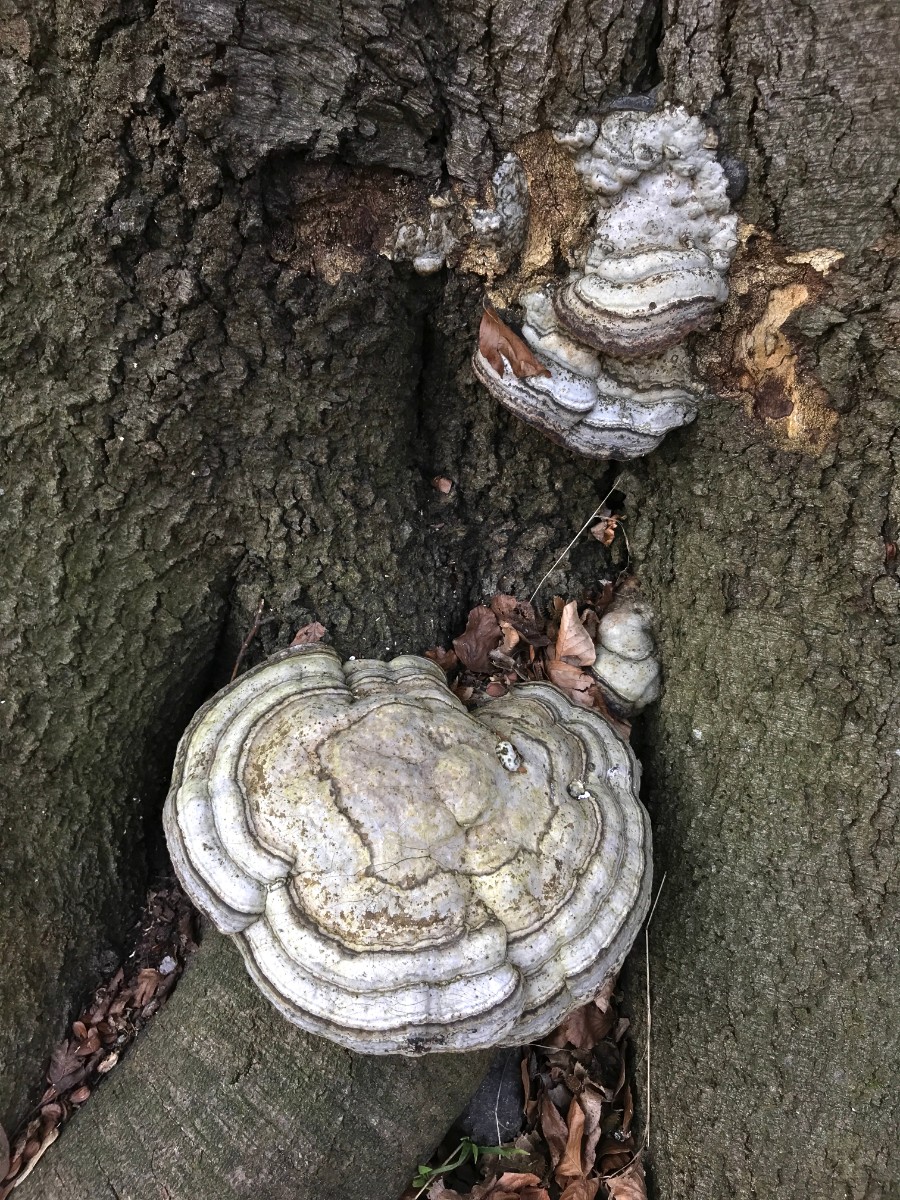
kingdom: Fungi
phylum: Basidiomycota
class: Agaricomycetes
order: Polyporales
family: Polyporaceae
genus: Fomes
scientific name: Fomes fomentarius
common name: tøndersvamp
